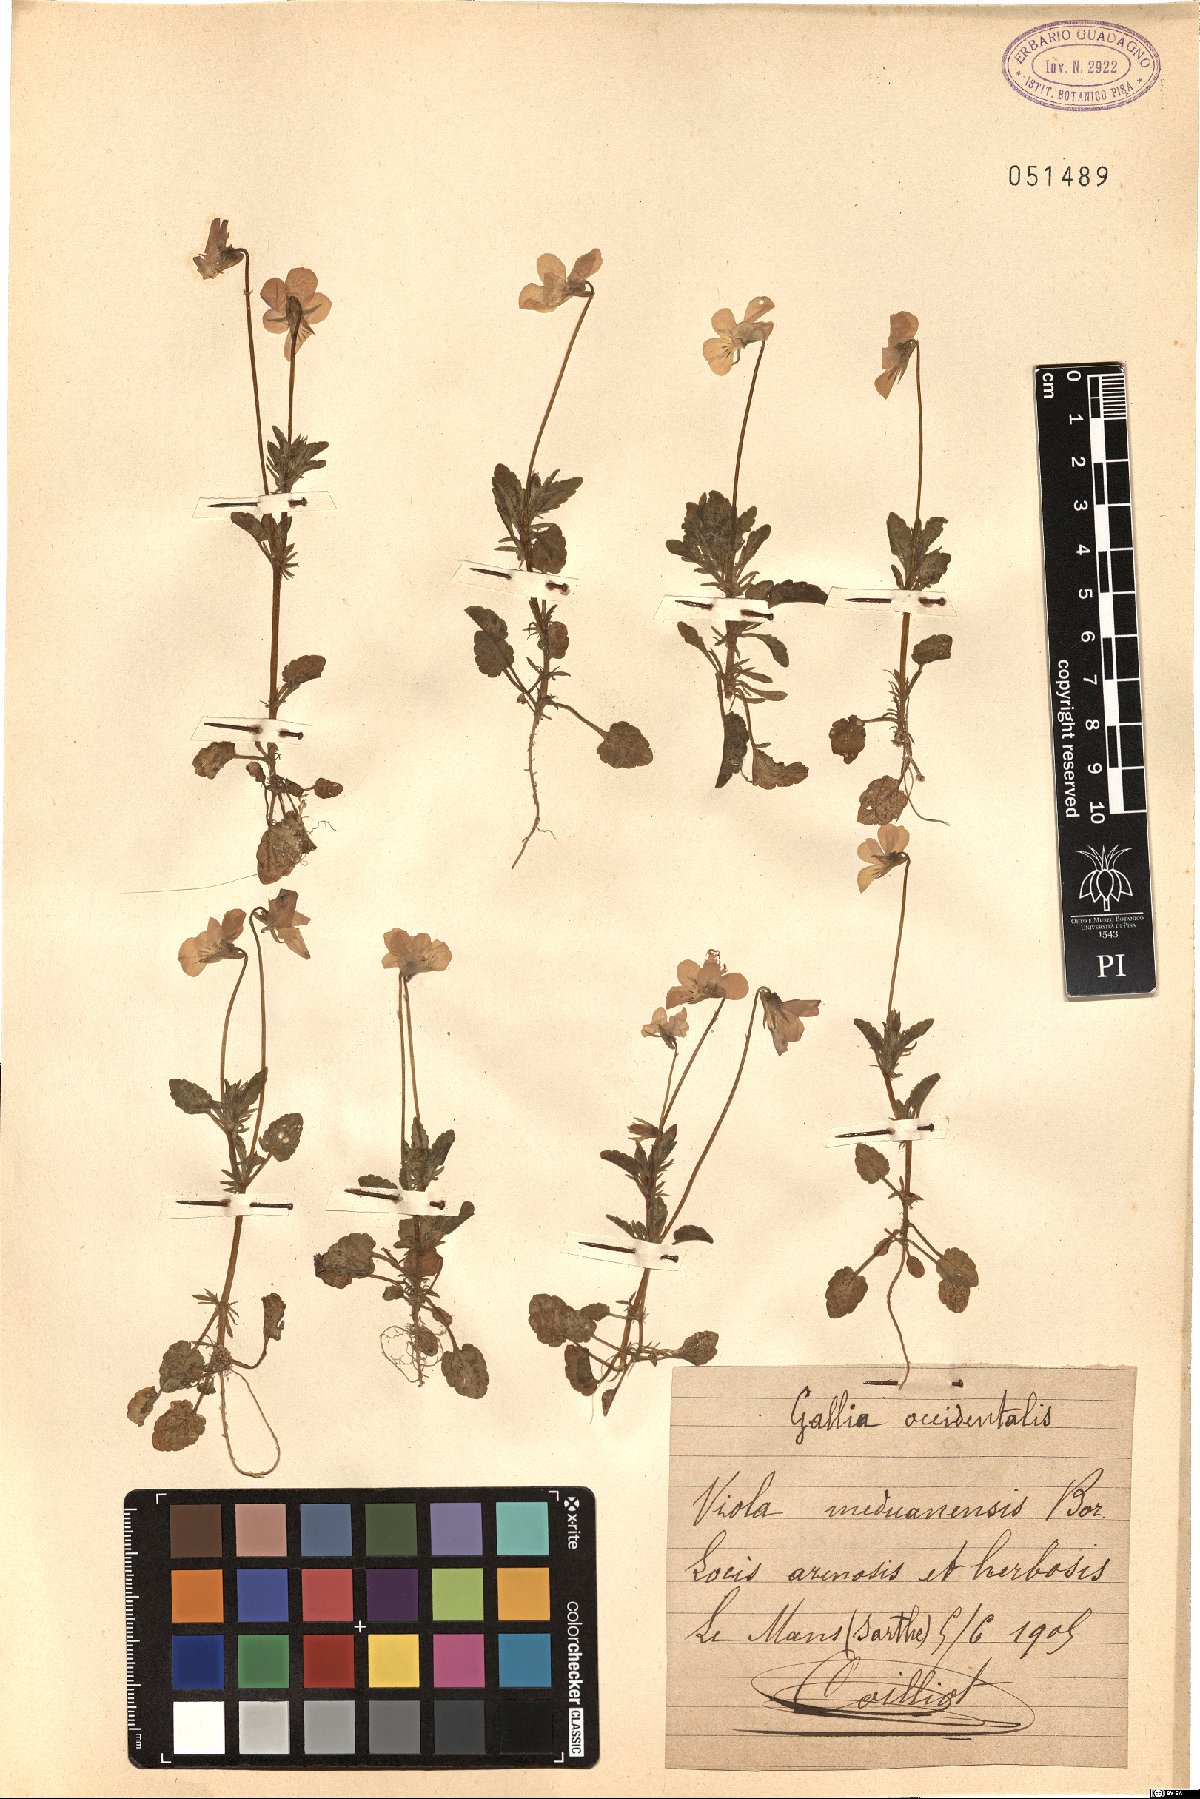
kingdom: Plantae
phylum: Tracheophyta
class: Magnoliopsida
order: Malpighiales
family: Violaceae
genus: Viola
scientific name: Viola tricolor
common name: Pansy
